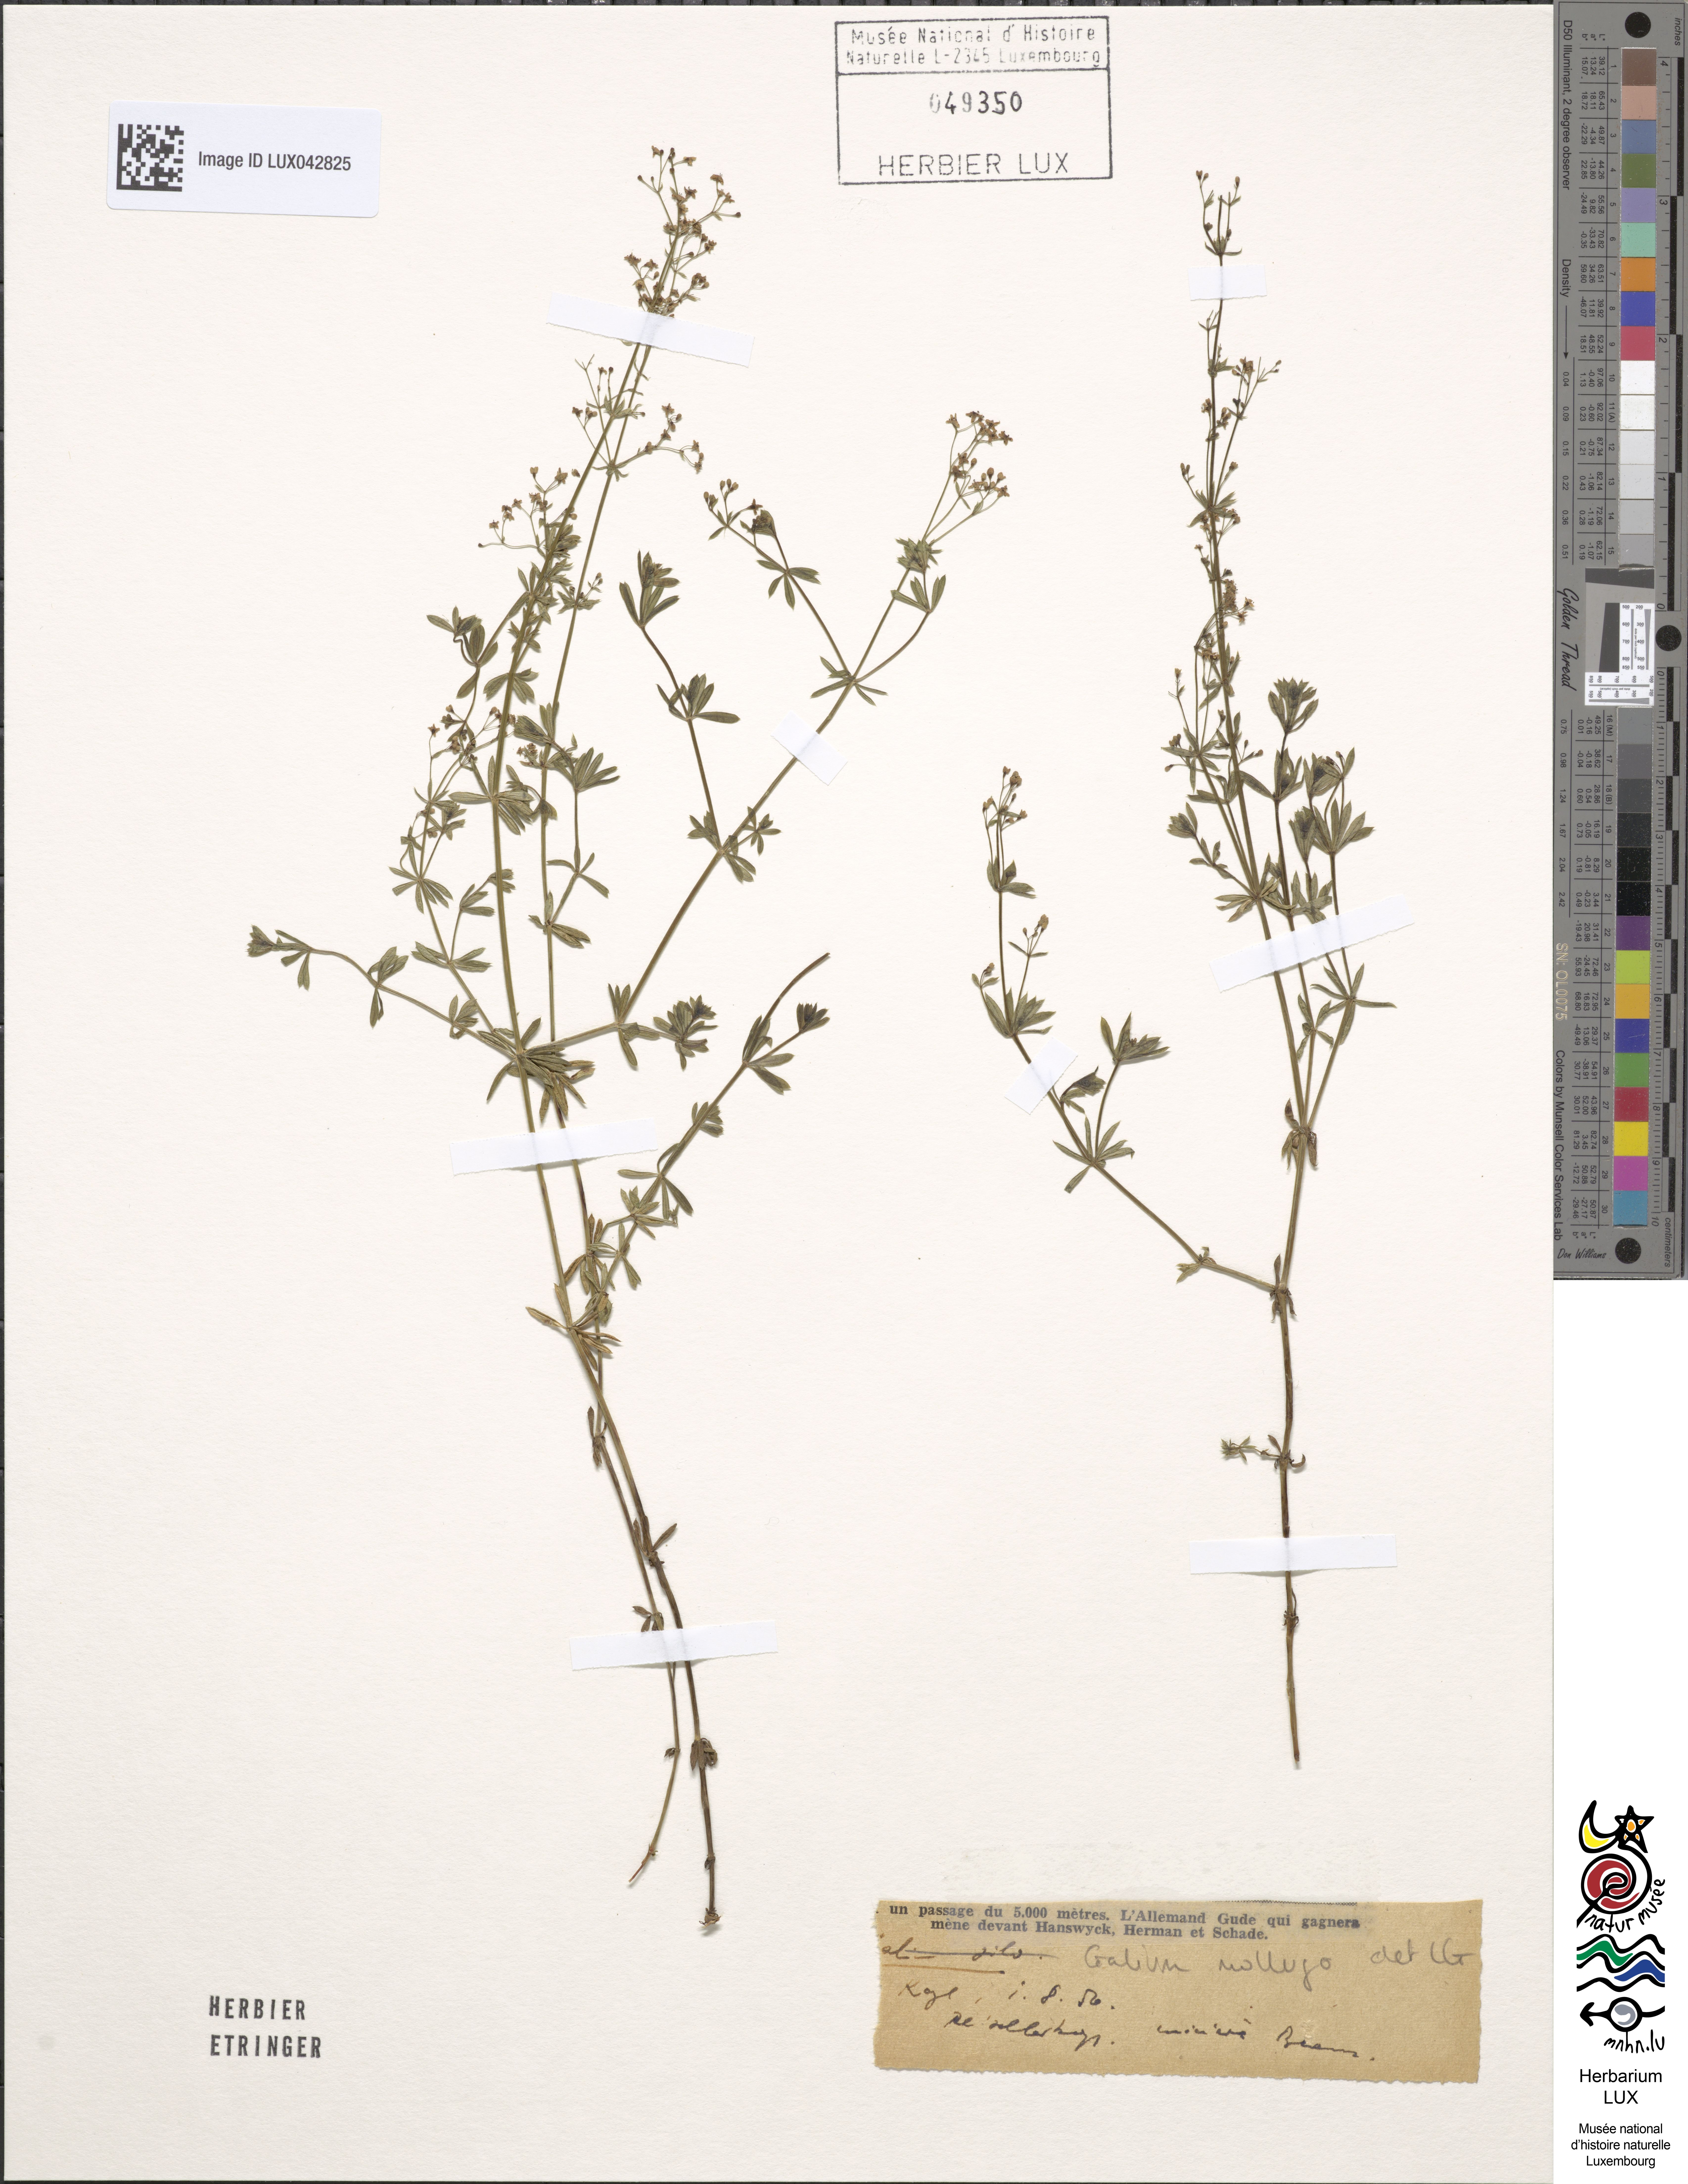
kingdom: Plantae
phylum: Tracheophyta
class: Magnoliopsida
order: Gentianales
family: Rubiaceae
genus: Galium
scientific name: Galium mollugo
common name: Hedge bedstraw
